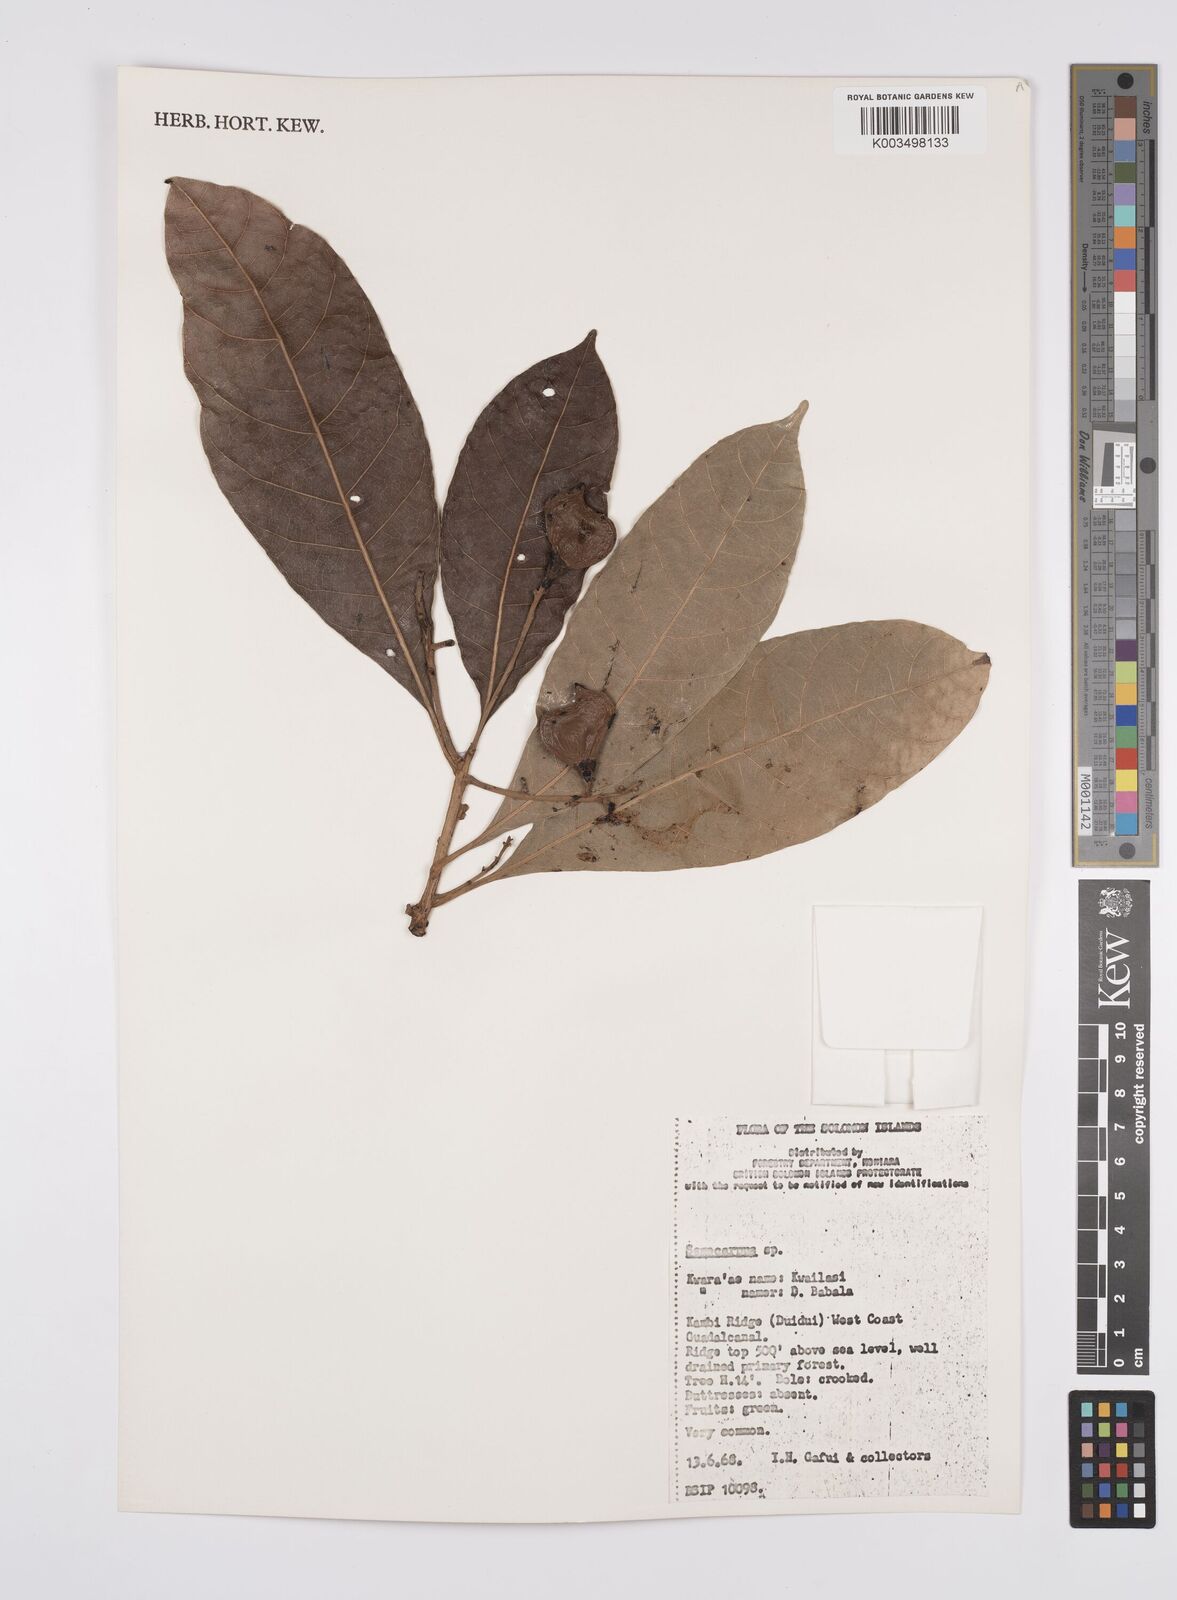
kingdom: Plantae
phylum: Tracheophyta
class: Magnoliopsida
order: Sapindales
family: Anacardiaceae
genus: Semecarpus
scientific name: Semecarpus
